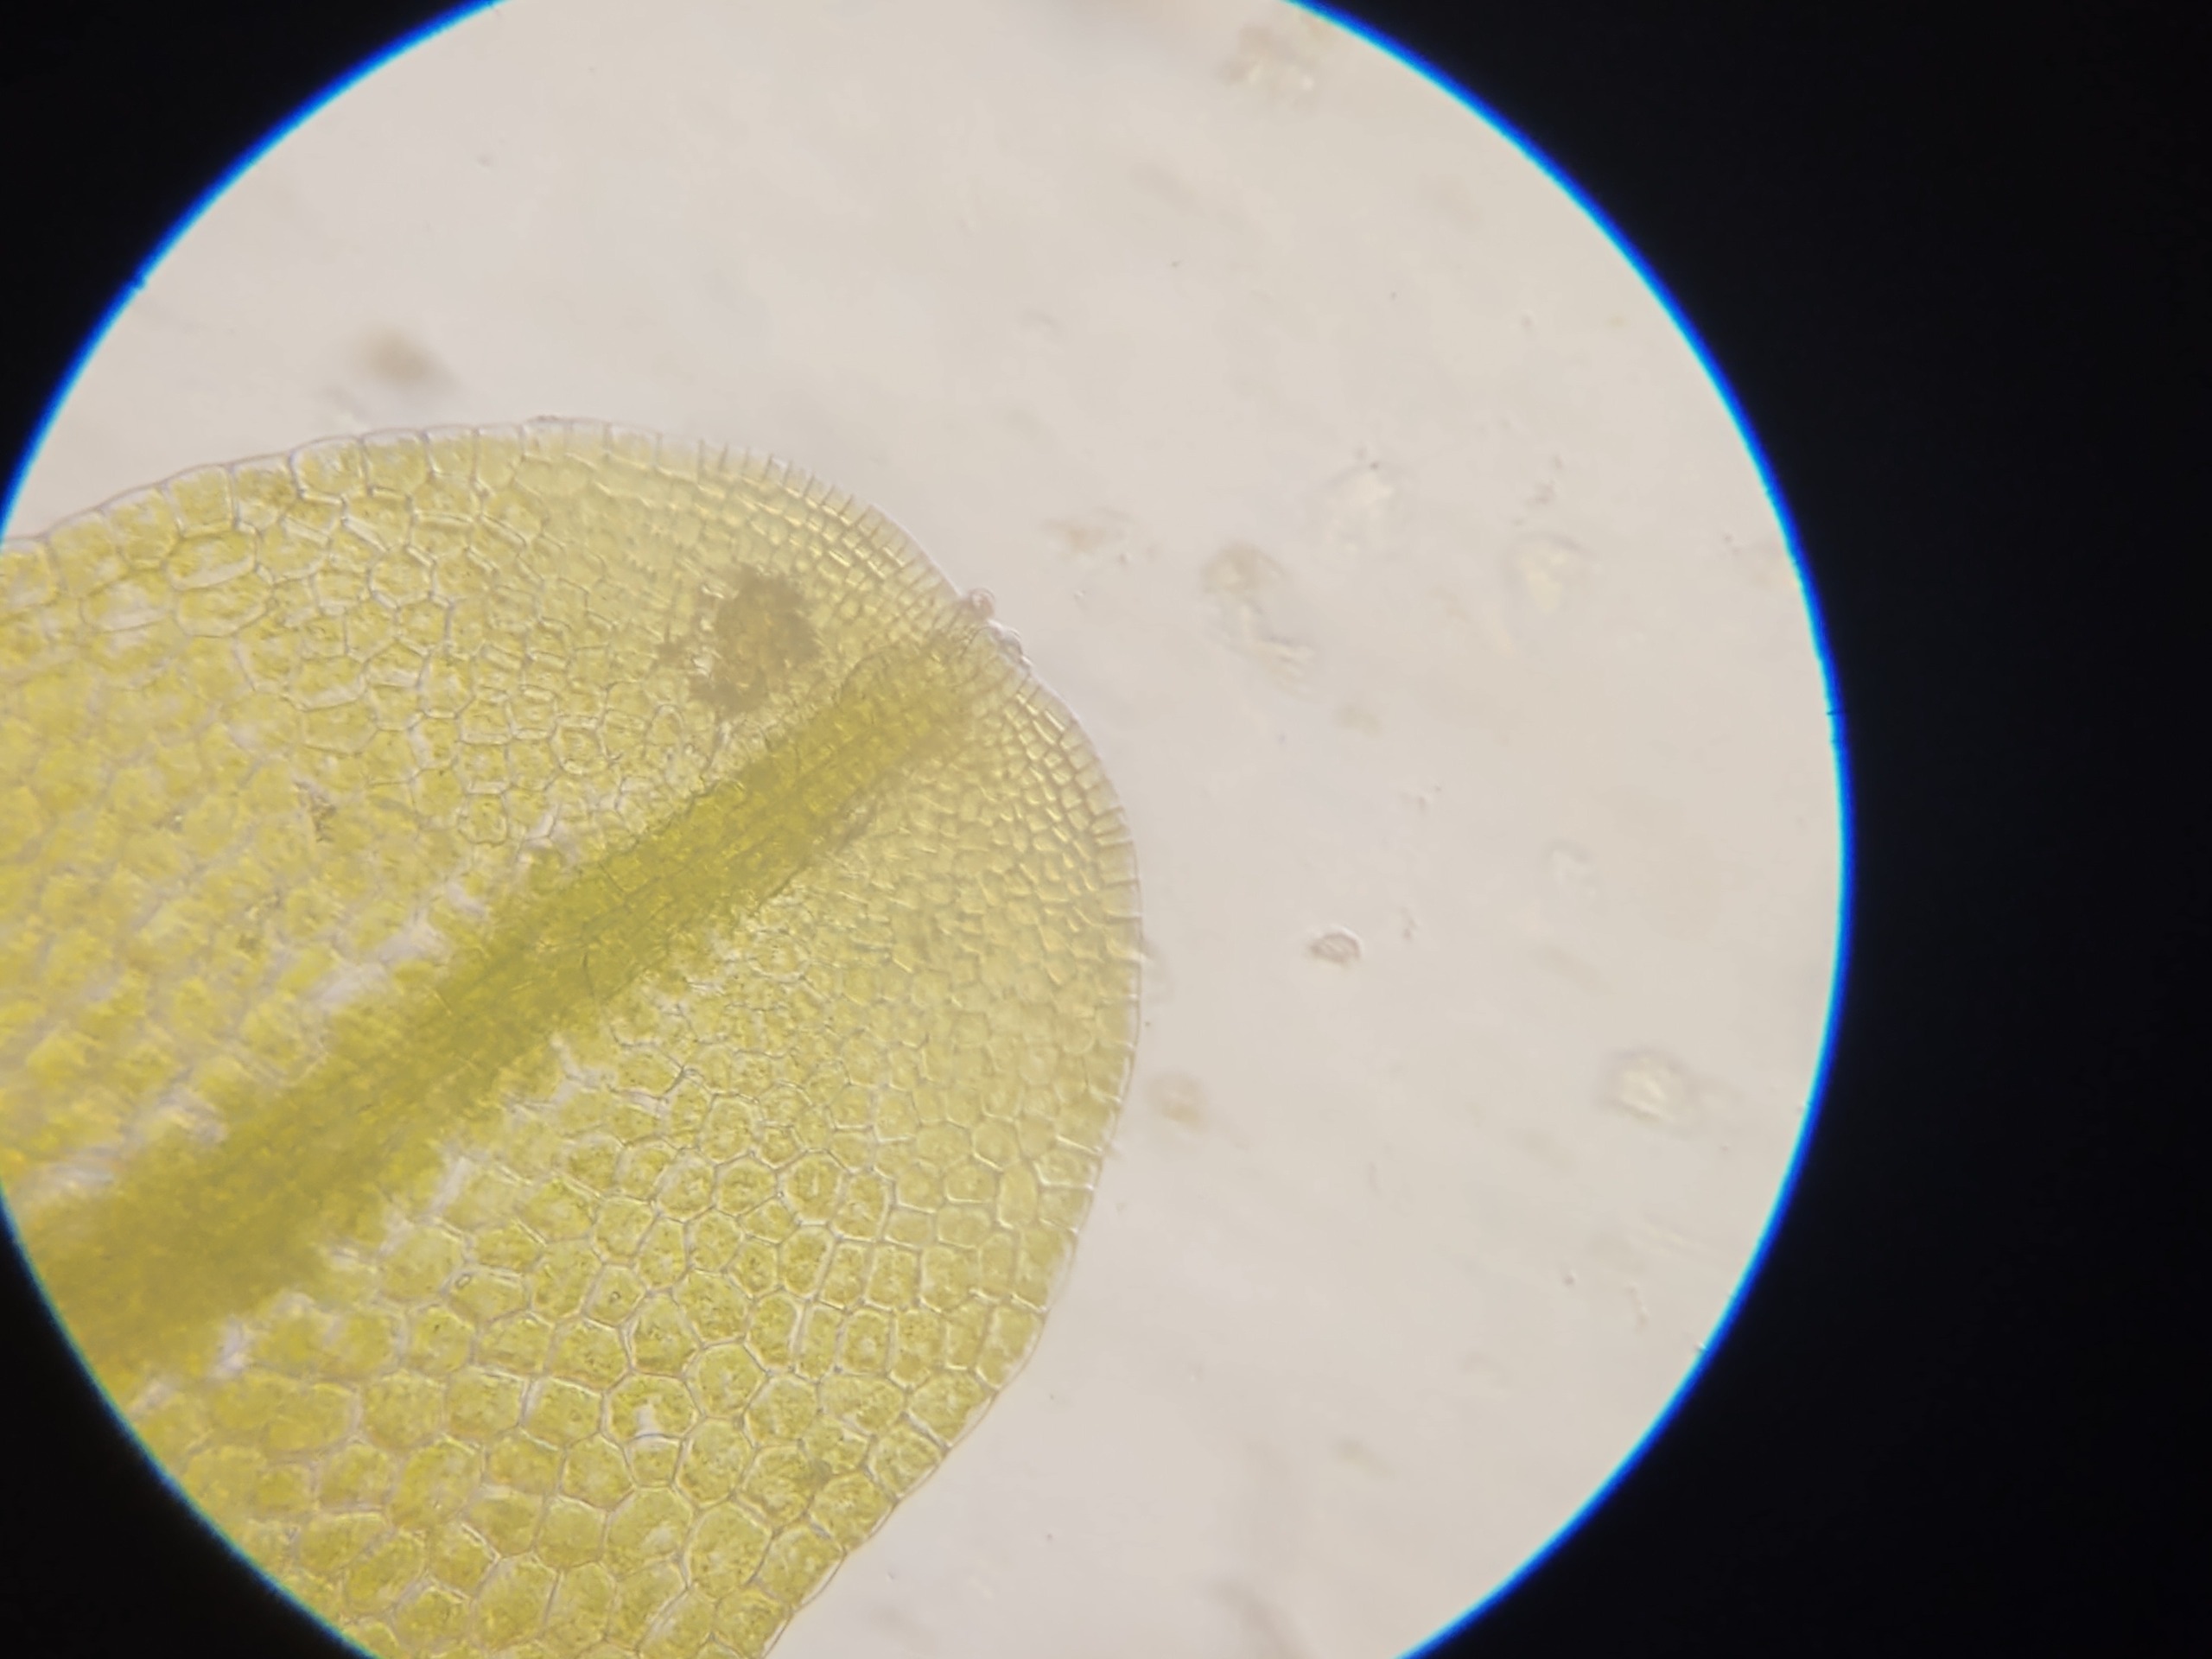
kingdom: Plantae
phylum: Marchantiophyta
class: Jungermanniopsida
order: Metzgeriales
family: Metzgeriaceae
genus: Metzgeria
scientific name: Metzgeria furcata
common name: Almindelig gaffelløv
